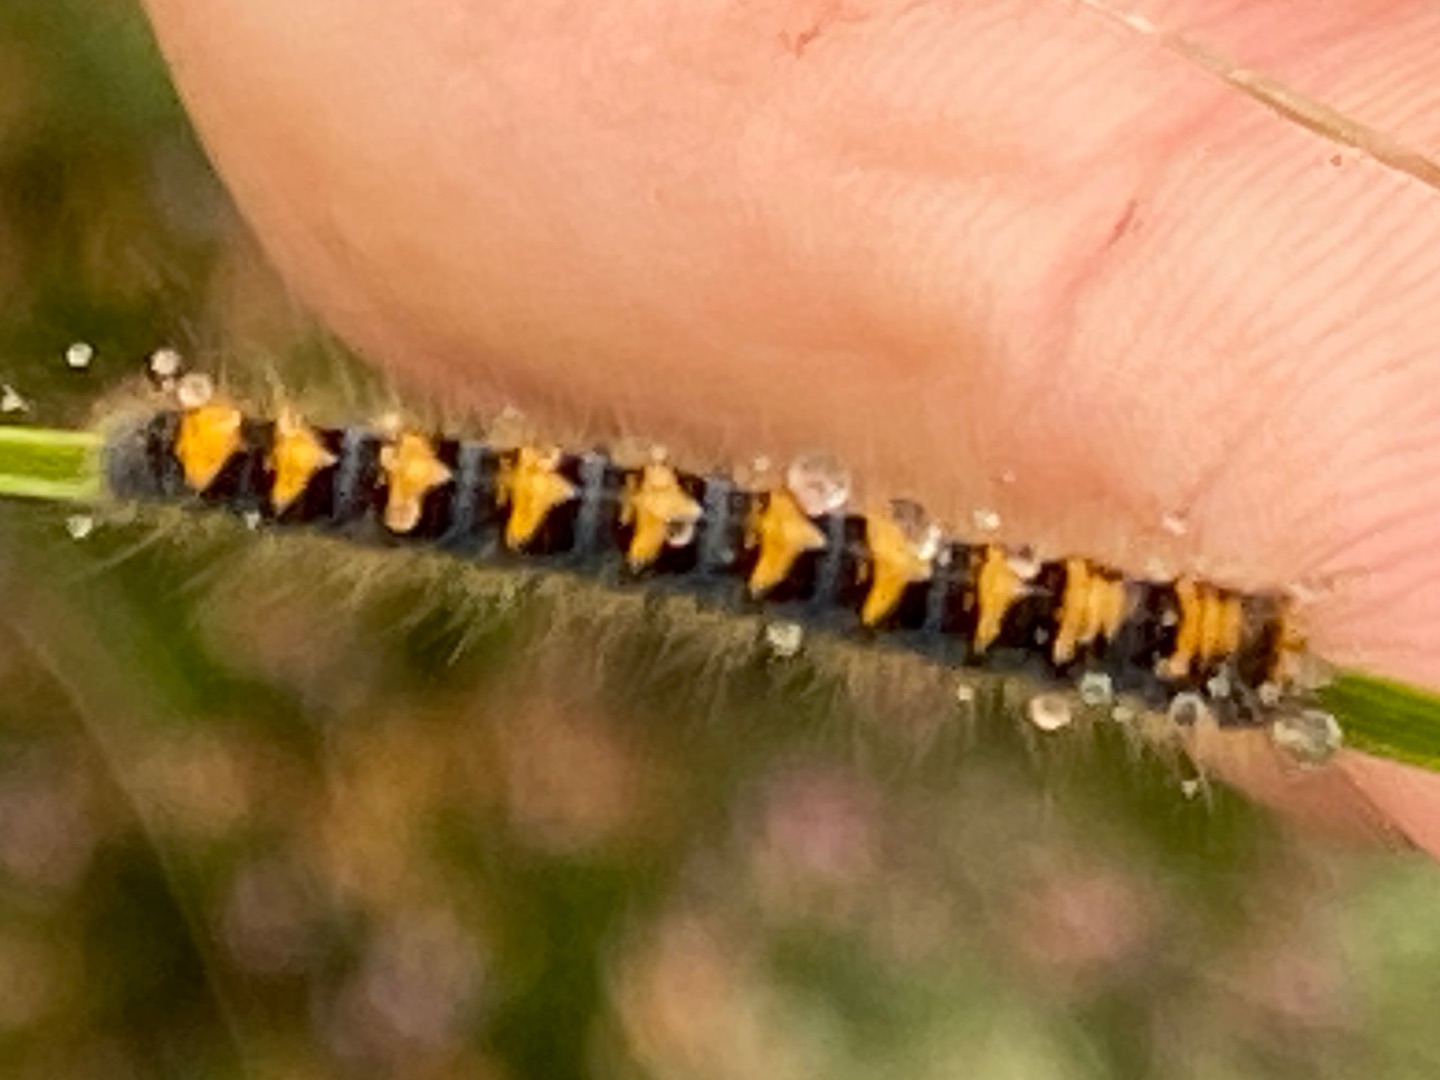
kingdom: Animalia
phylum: Arthropoda
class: Insecta
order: Lepidoptera
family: Lasiocampidae
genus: Lasiocampa
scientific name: Lasiocampa quercus
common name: Egespinder
